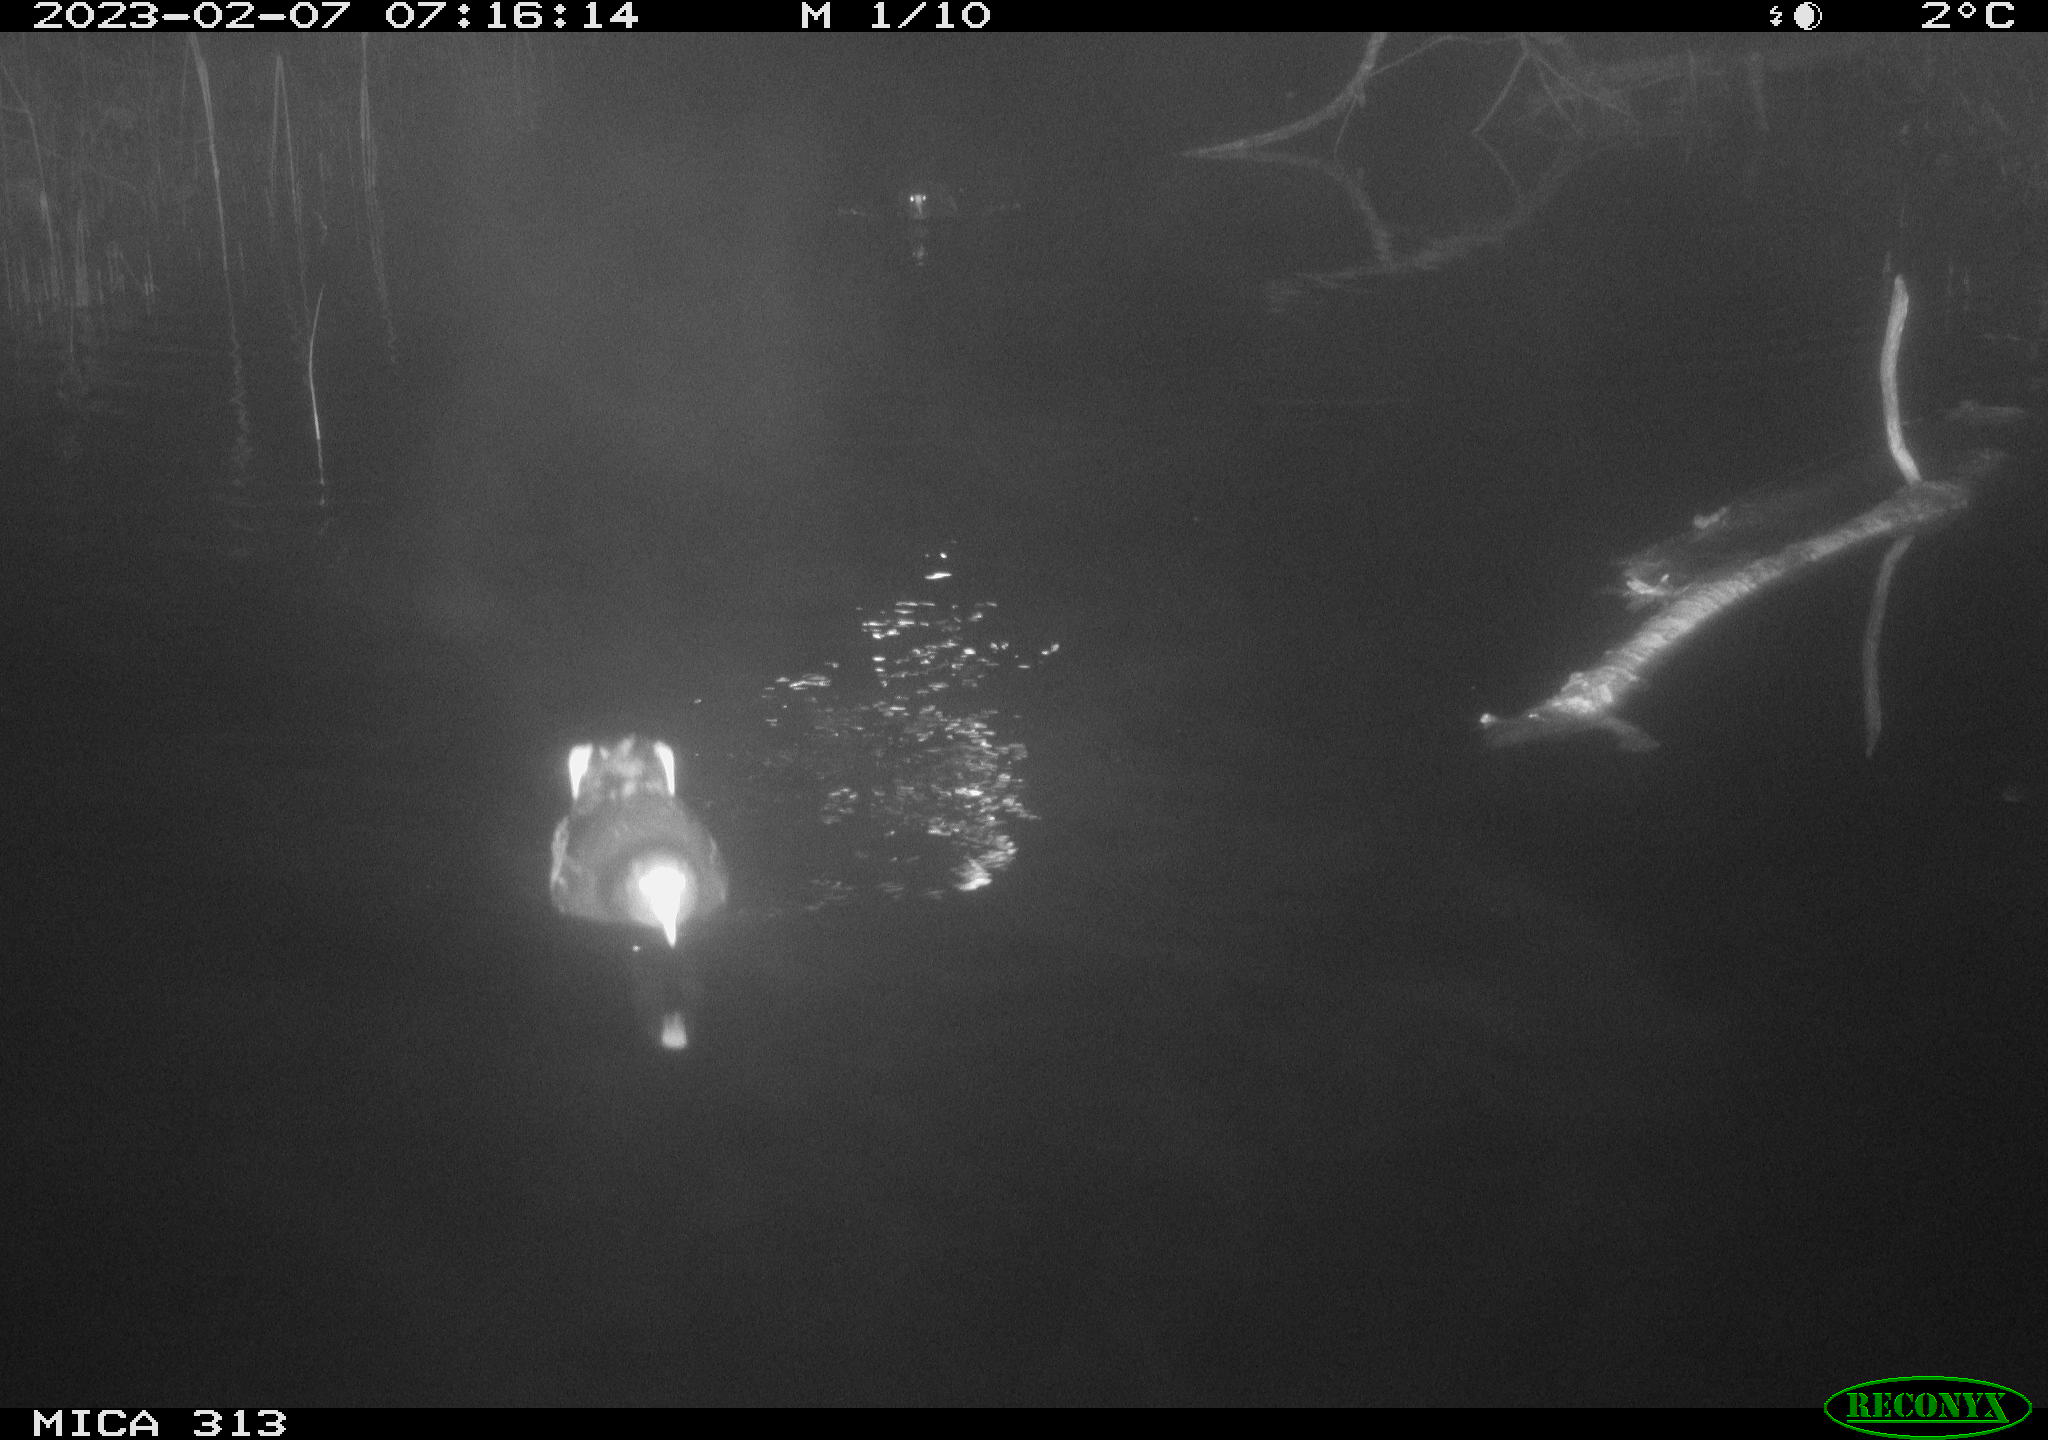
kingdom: Animalia
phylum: Chordata
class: Aves
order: Gruiformes
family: Rallidae
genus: Fulica
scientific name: Fulica atra
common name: Eurasian coot
